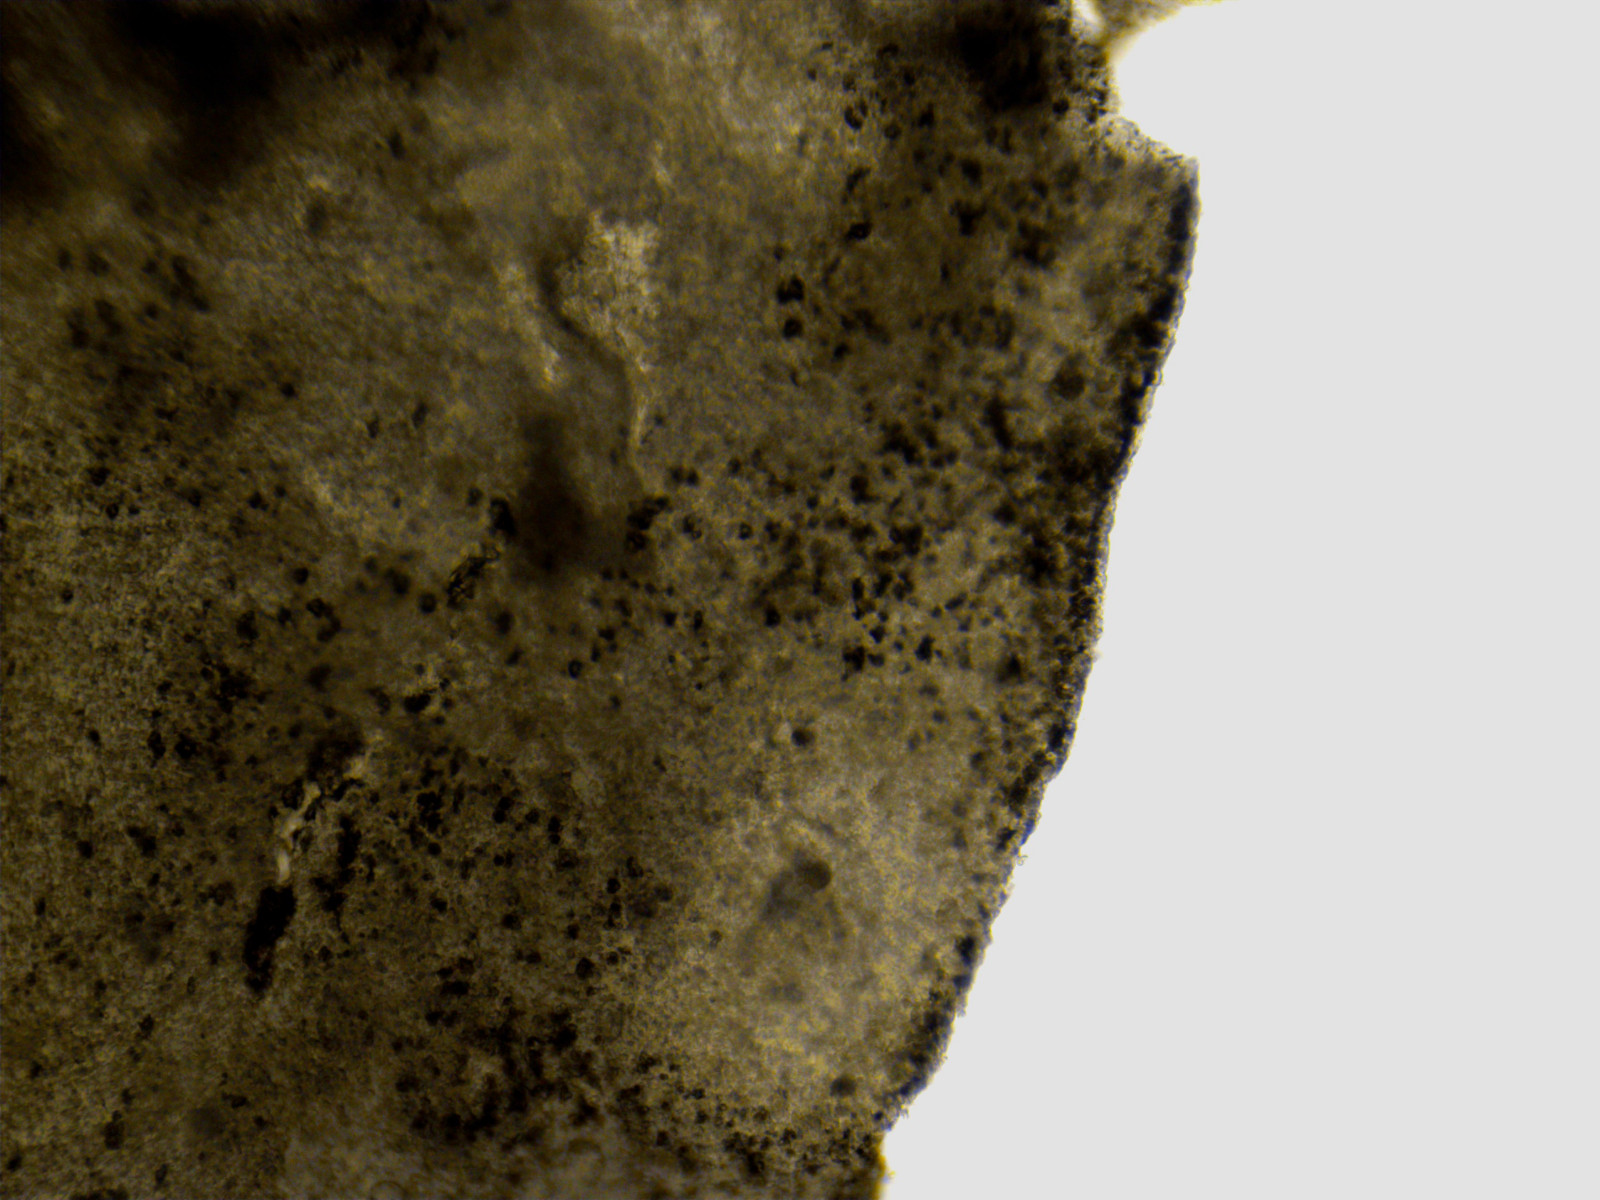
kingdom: Fungi
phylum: Basidiomycota
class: Agaricomycetes
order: Agaricales
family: Agaricaceae
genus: Cystodermella
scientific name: Cystodermella granulosa
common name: kliddet grynhat
